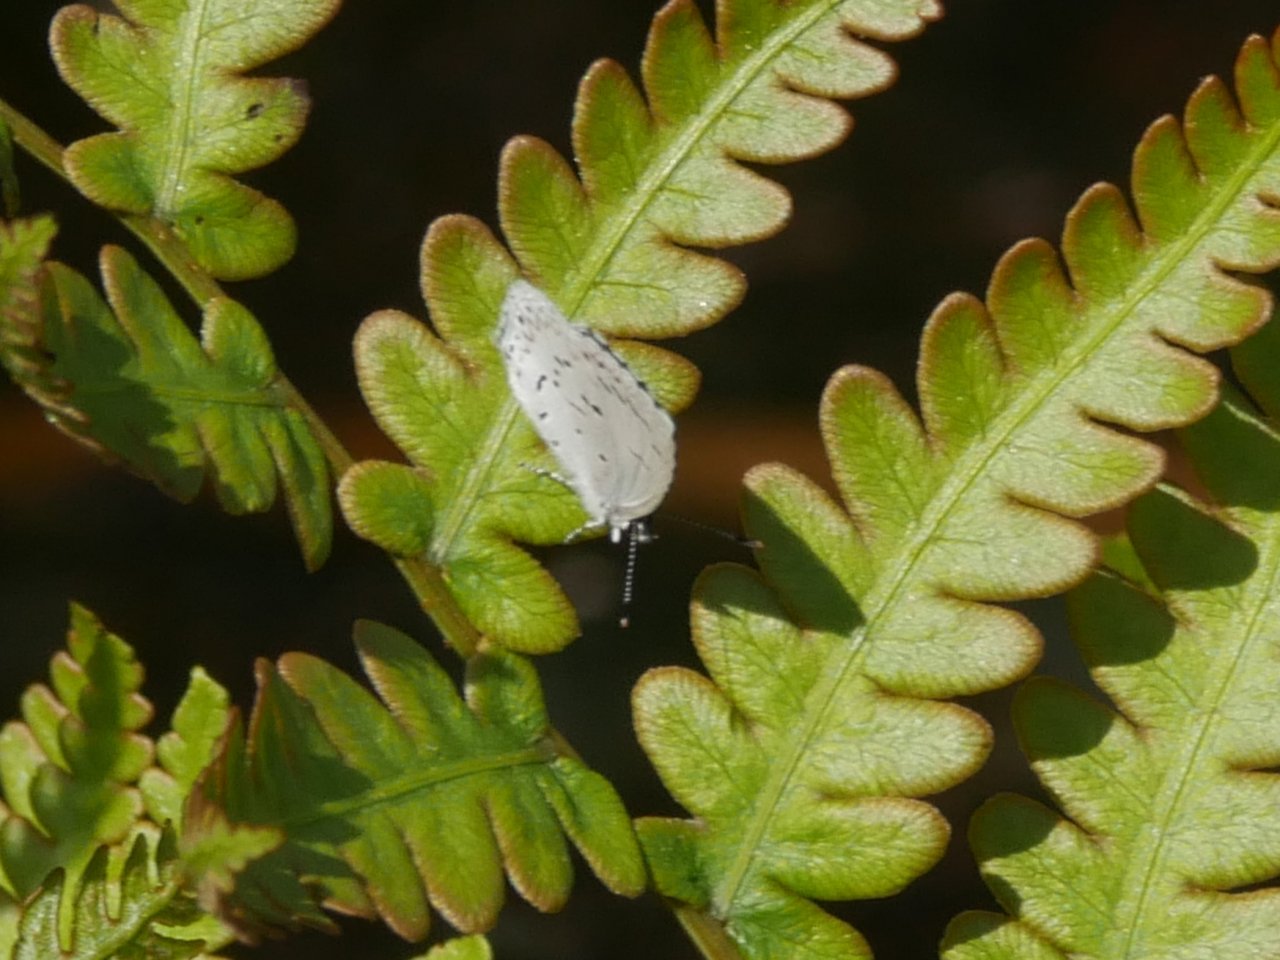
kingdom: Animalia
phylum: Arthropoda
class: Insecta
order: Lepidoptera
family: Lycaenidae
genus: Celastrina
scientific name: Celastrina ladon
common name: Spring Azure
